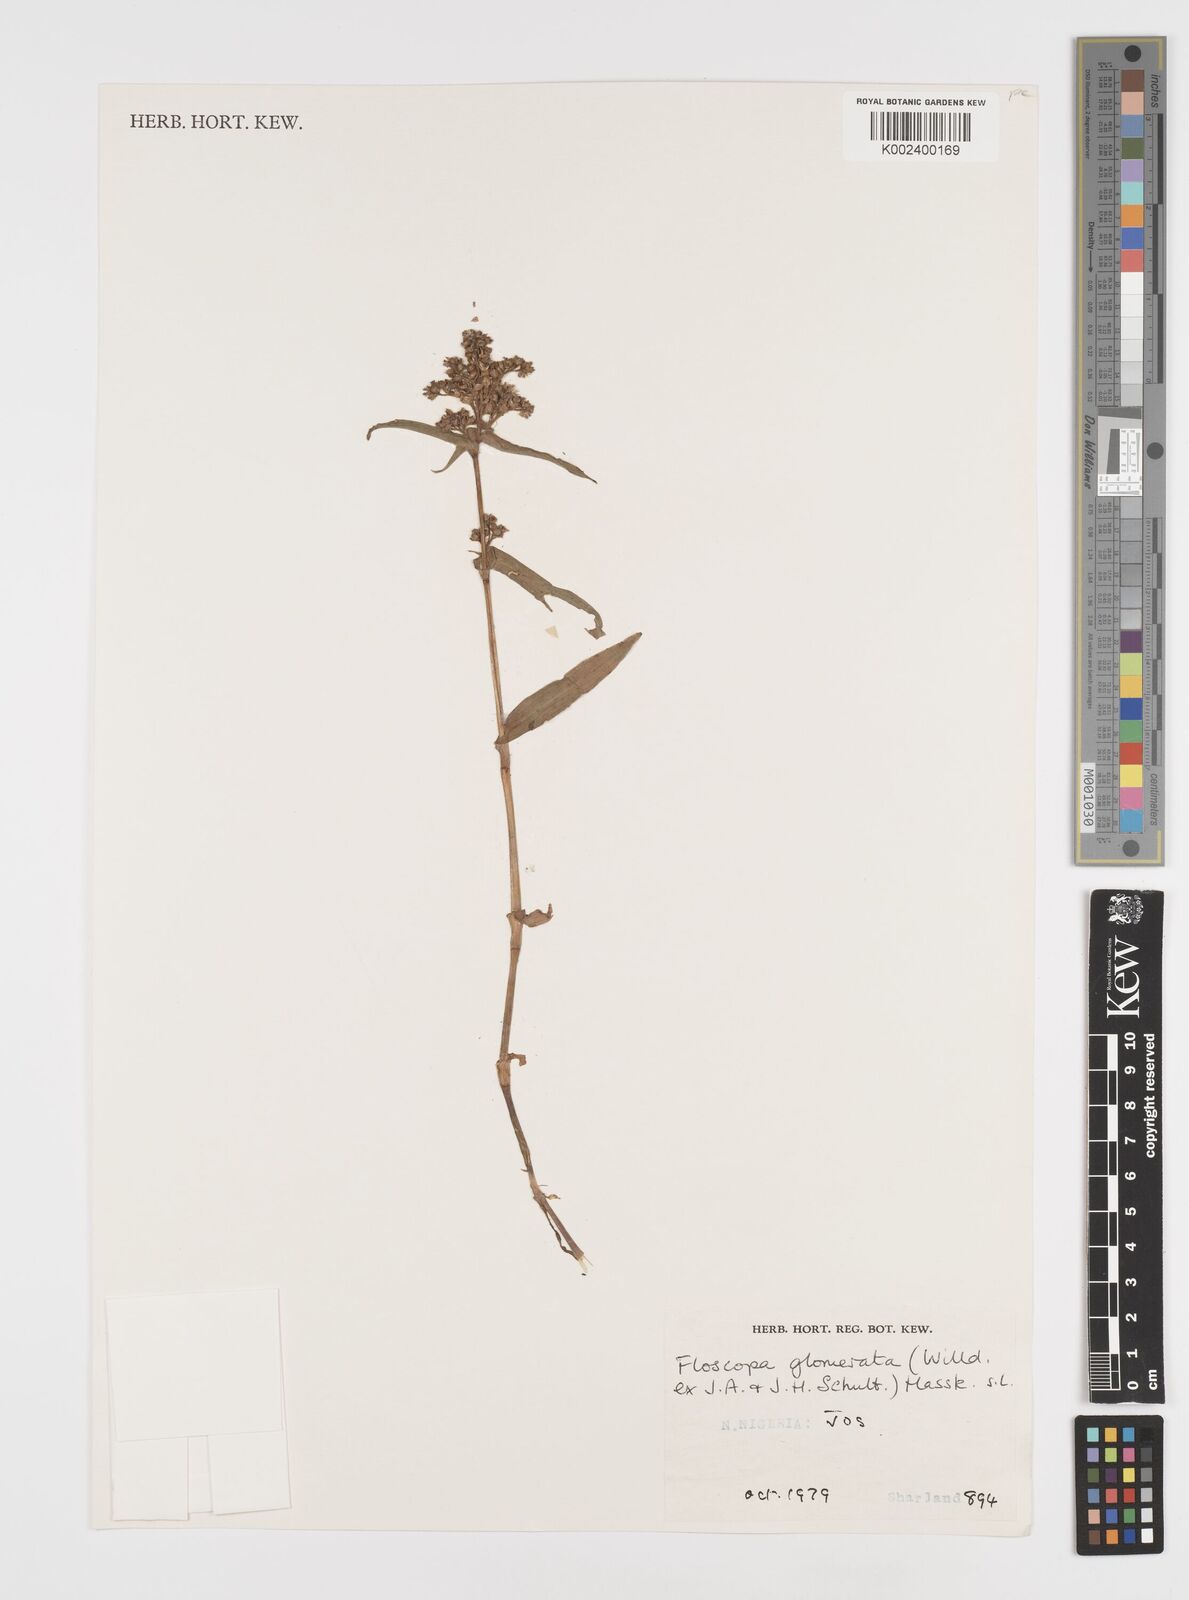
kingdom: Plantae
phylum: Tracheophyta
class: Liliopsida
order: Commelinales
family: Commelinaceae
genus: Floscopa
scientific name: Floscopa glomerata
